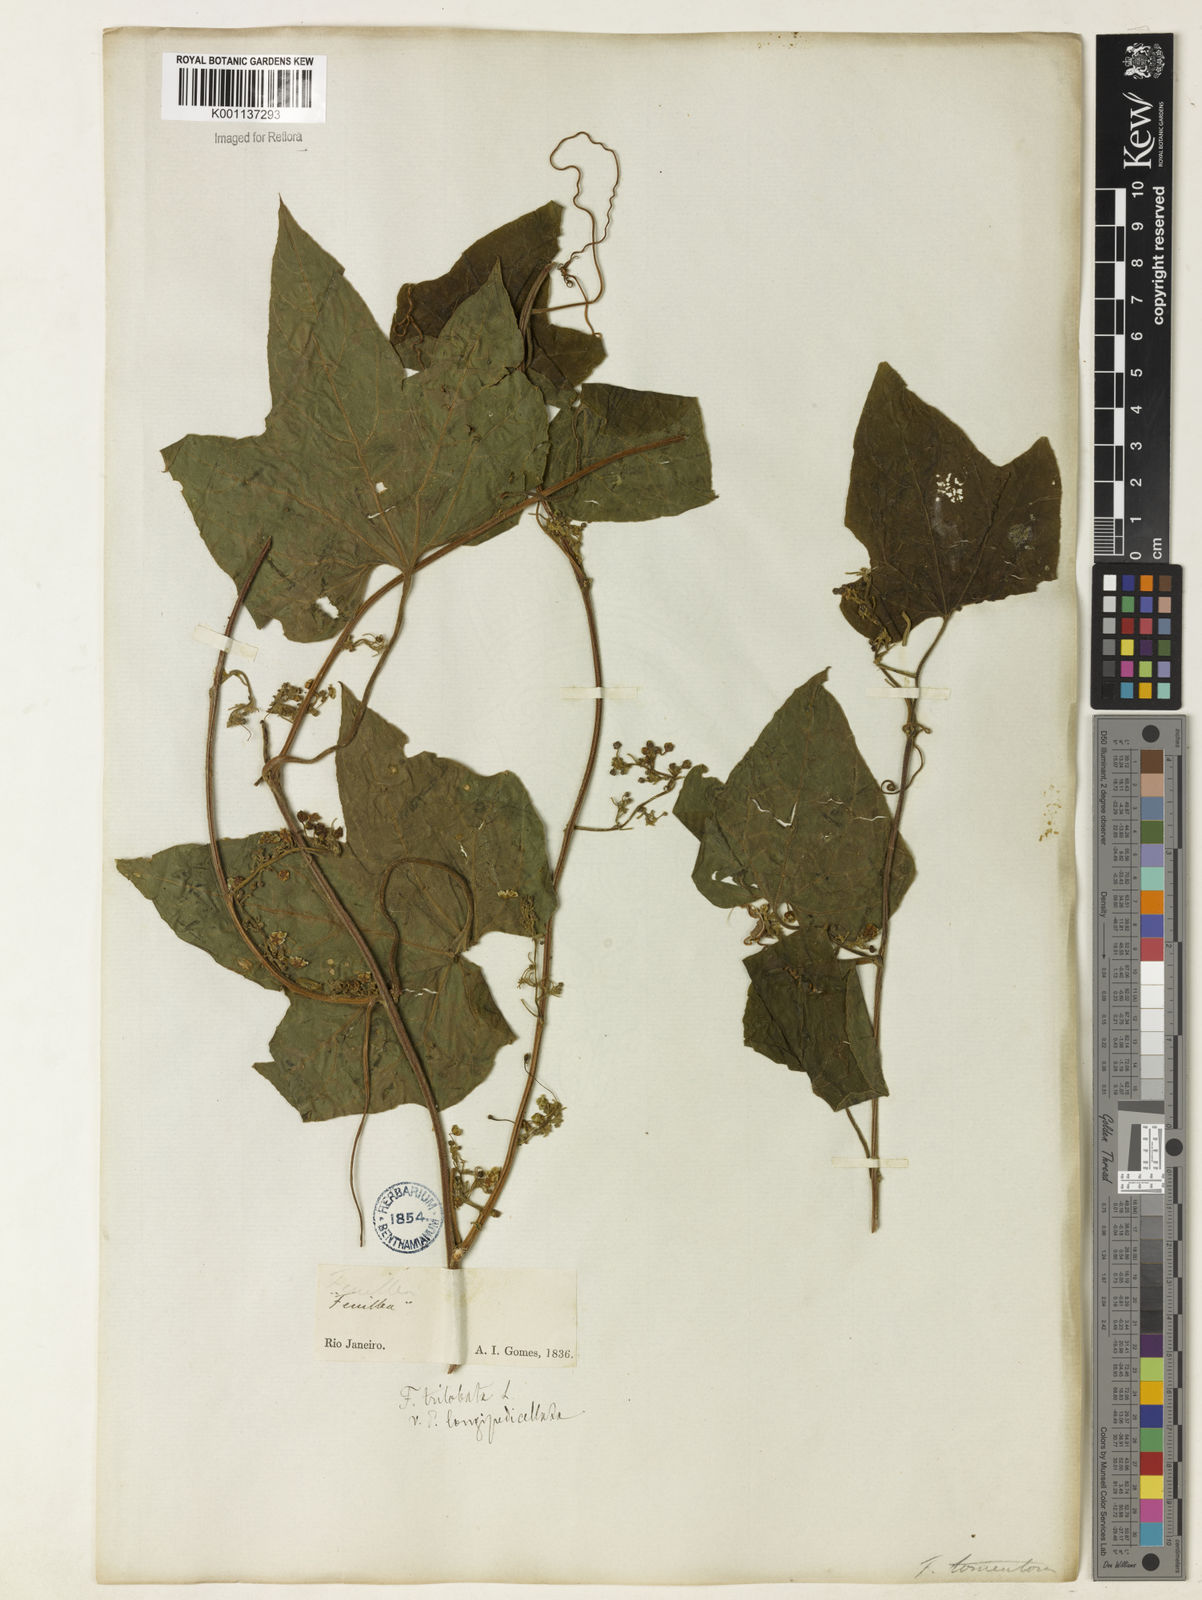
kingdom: Plantae
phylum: Tracheophyta
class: Magnoliopsida
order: Cucurbitales
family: Cucurbitaceae
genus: Fevillea
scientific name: Fevillea trilobata
